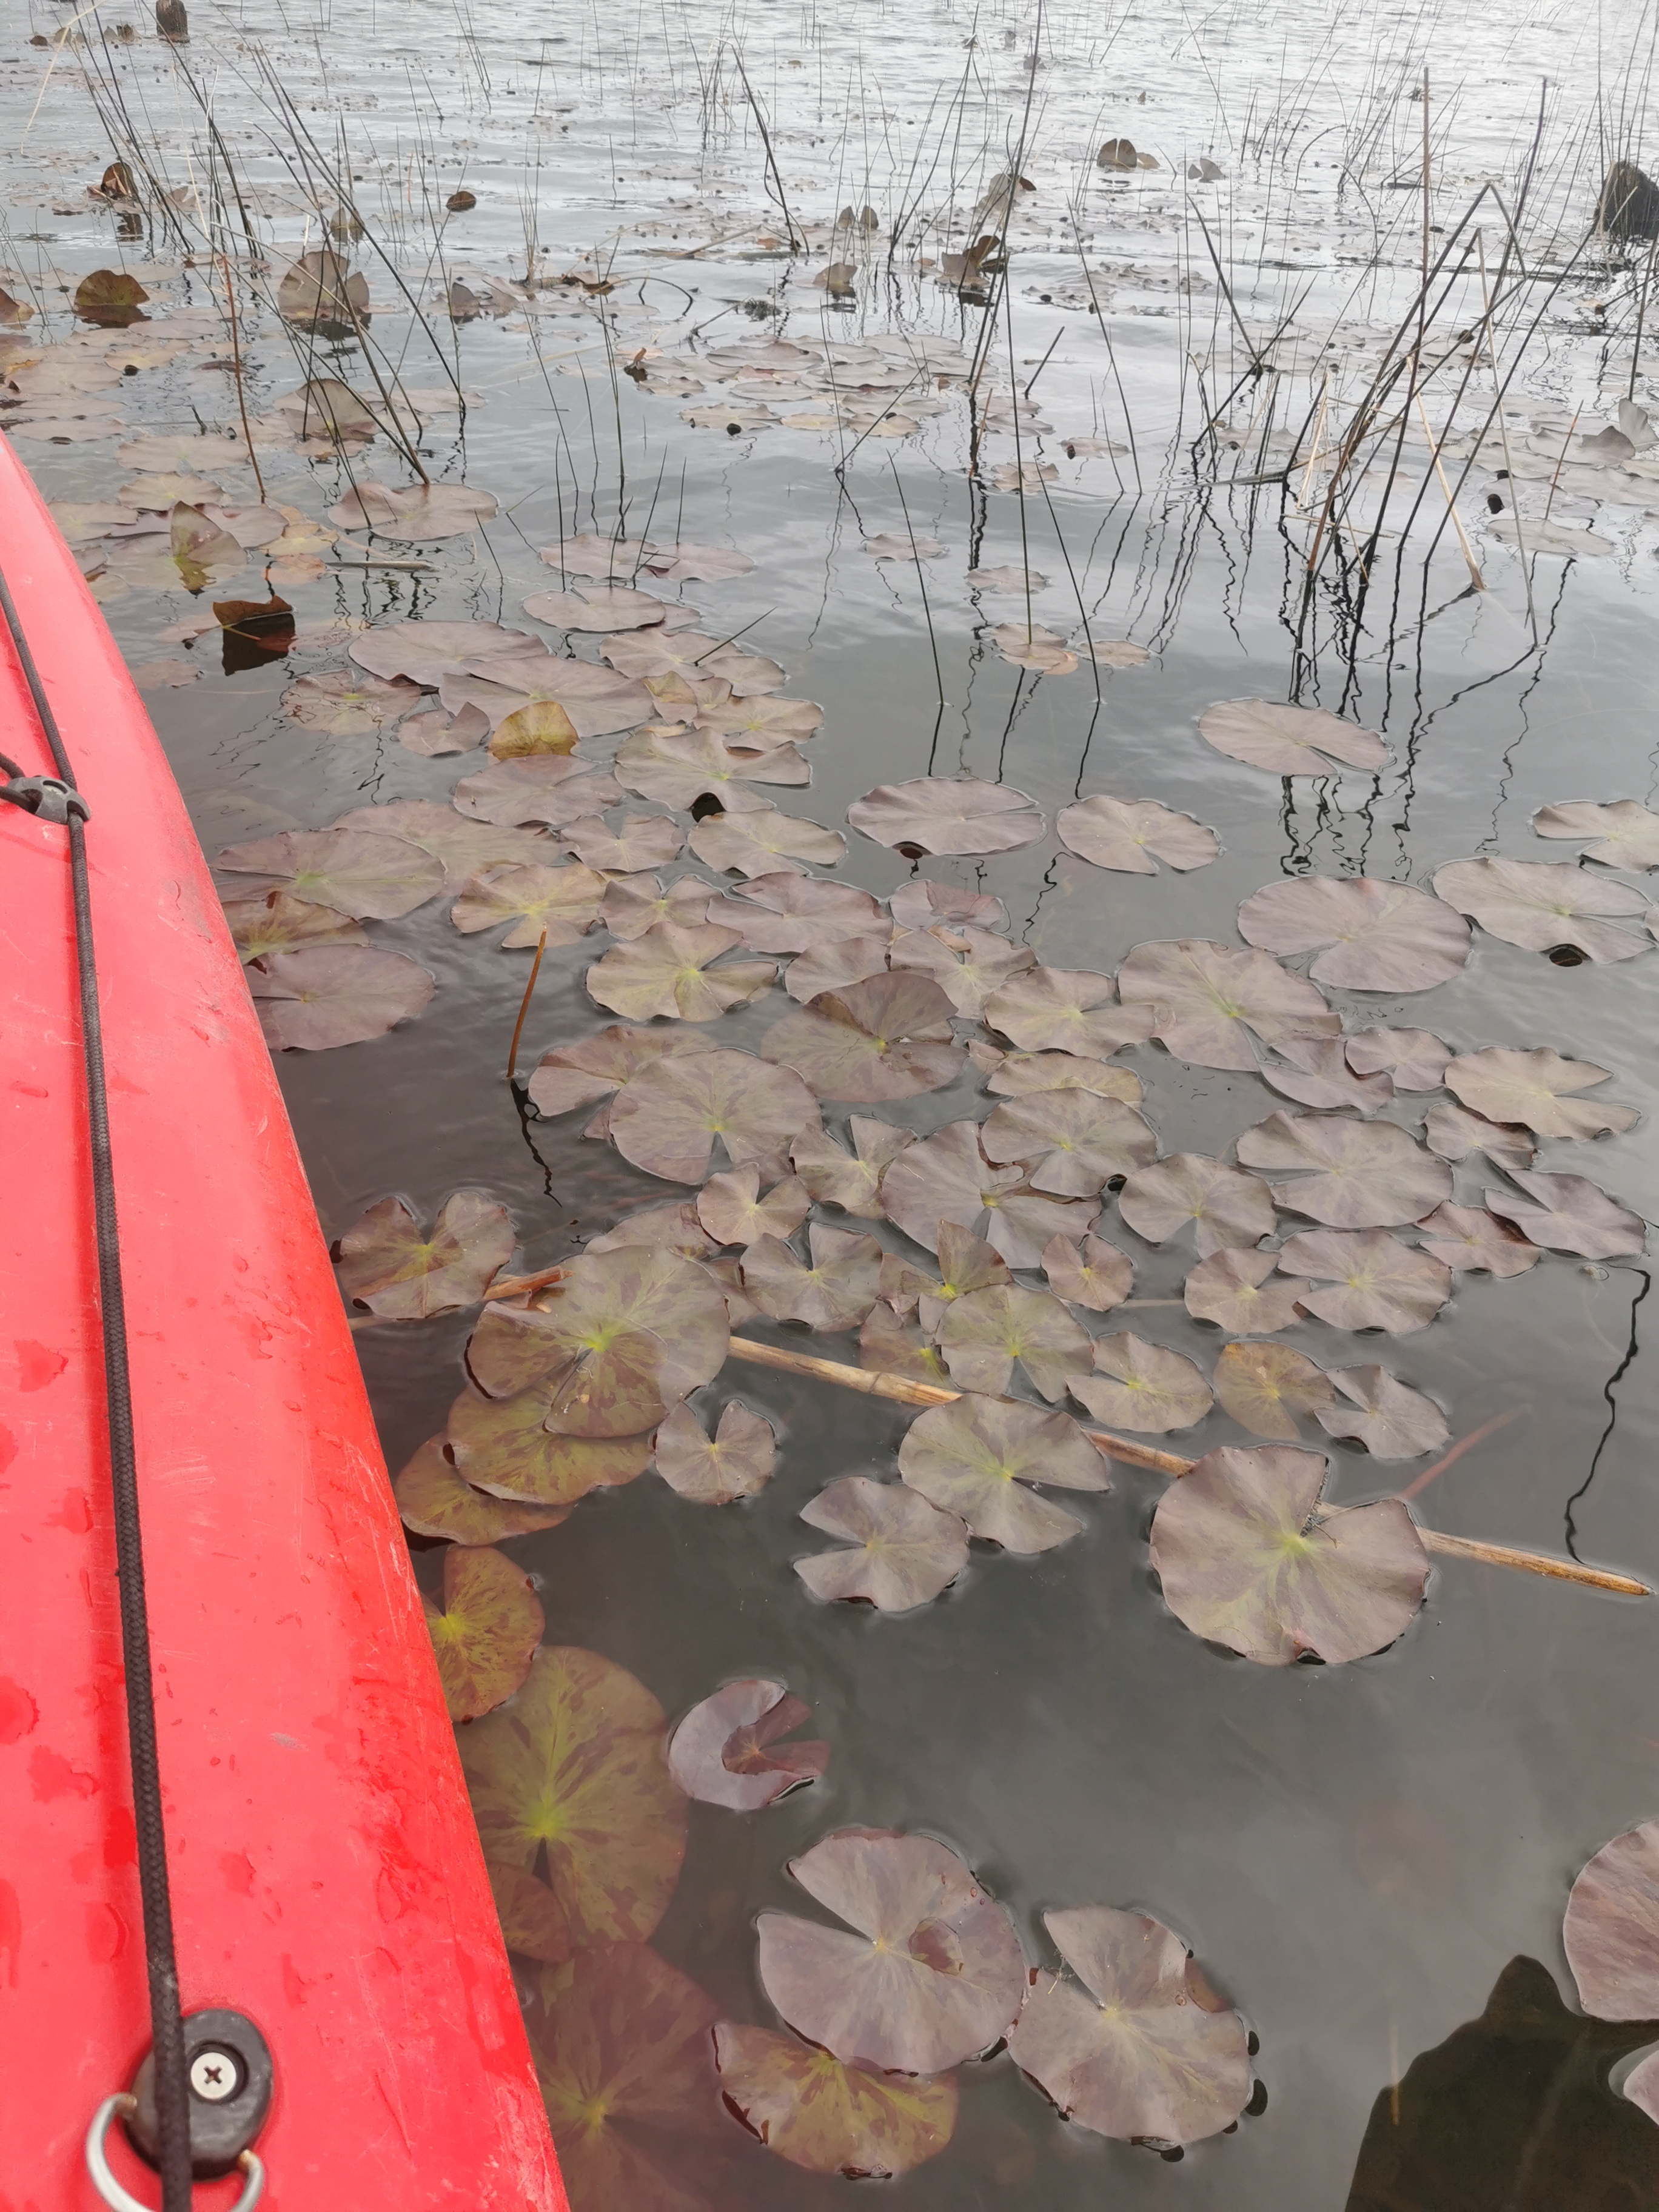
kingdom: Plantae
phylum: Tracheophyta
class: Magnoliopsida
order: Nymphaeales
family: Nymphaeaceae
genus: Nymphaea
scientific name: Nymphaea
